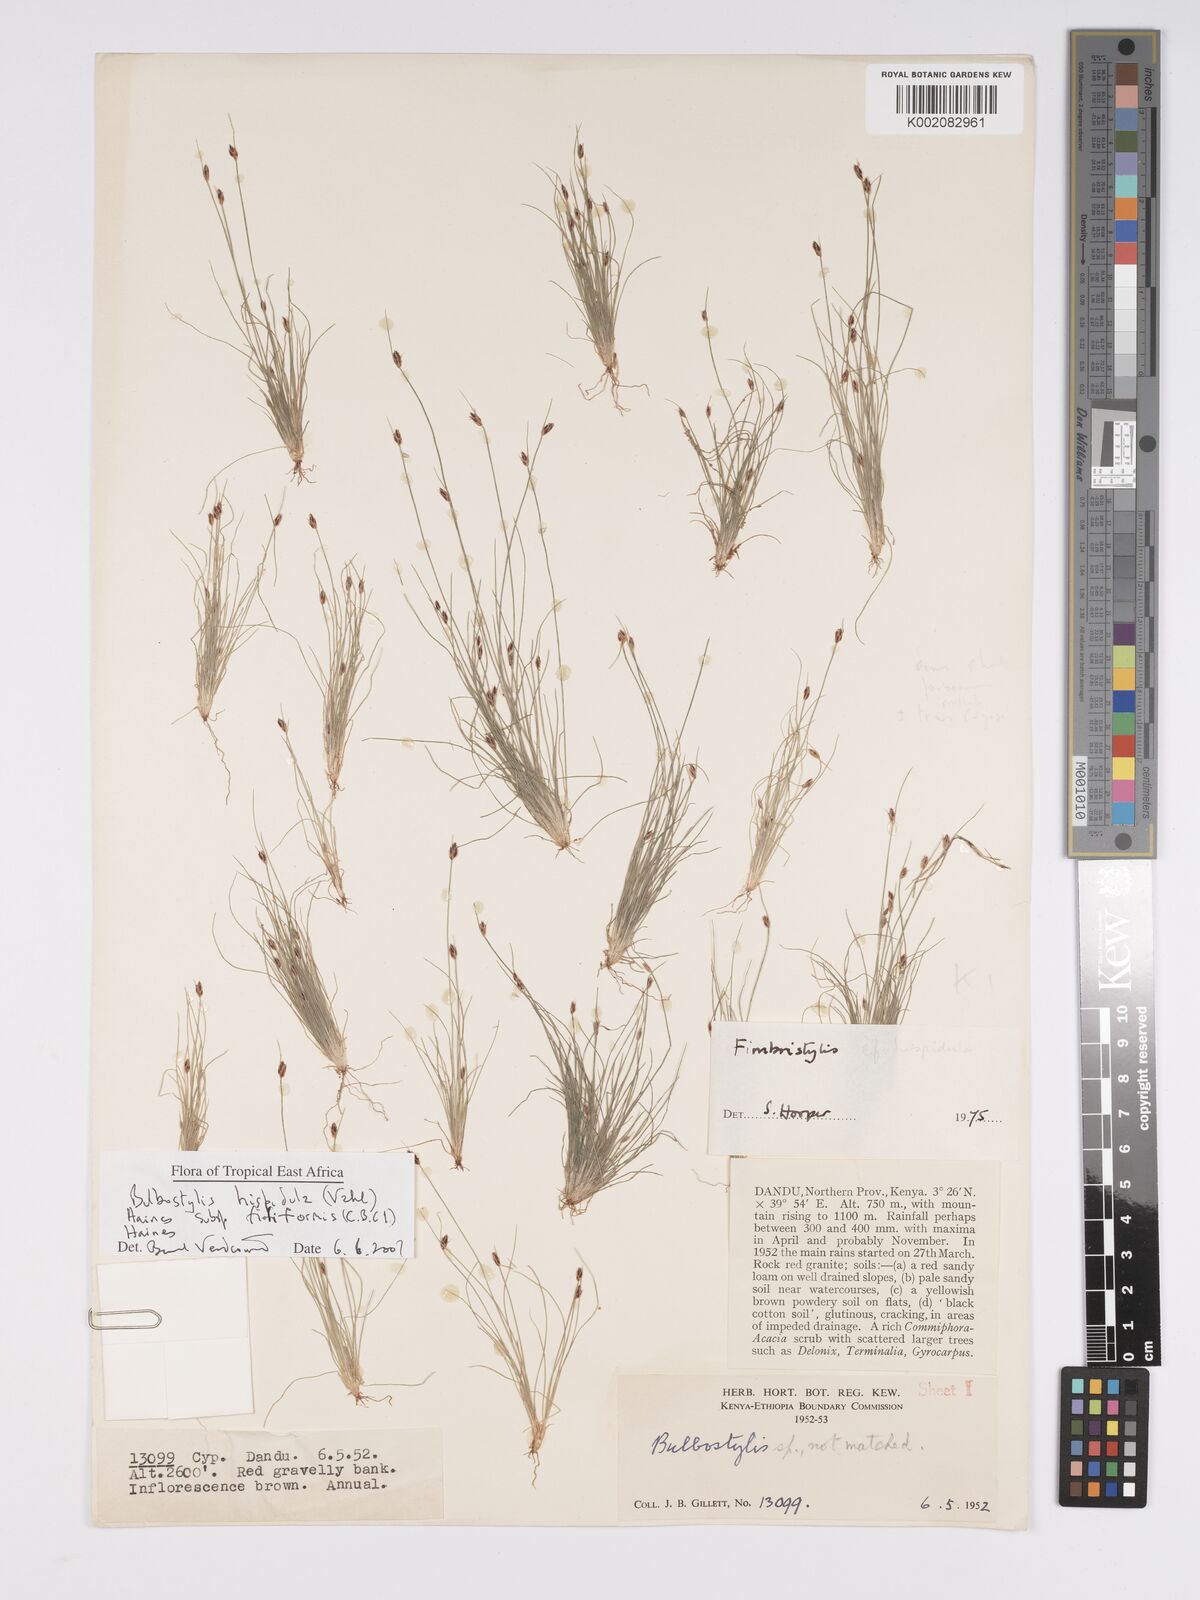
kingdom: Plantae
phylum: Tracheophyta
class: Liliopsida
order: Poales
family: Cyperaceae
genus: Bulbostylis
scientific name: Bulbostylis hispidula
